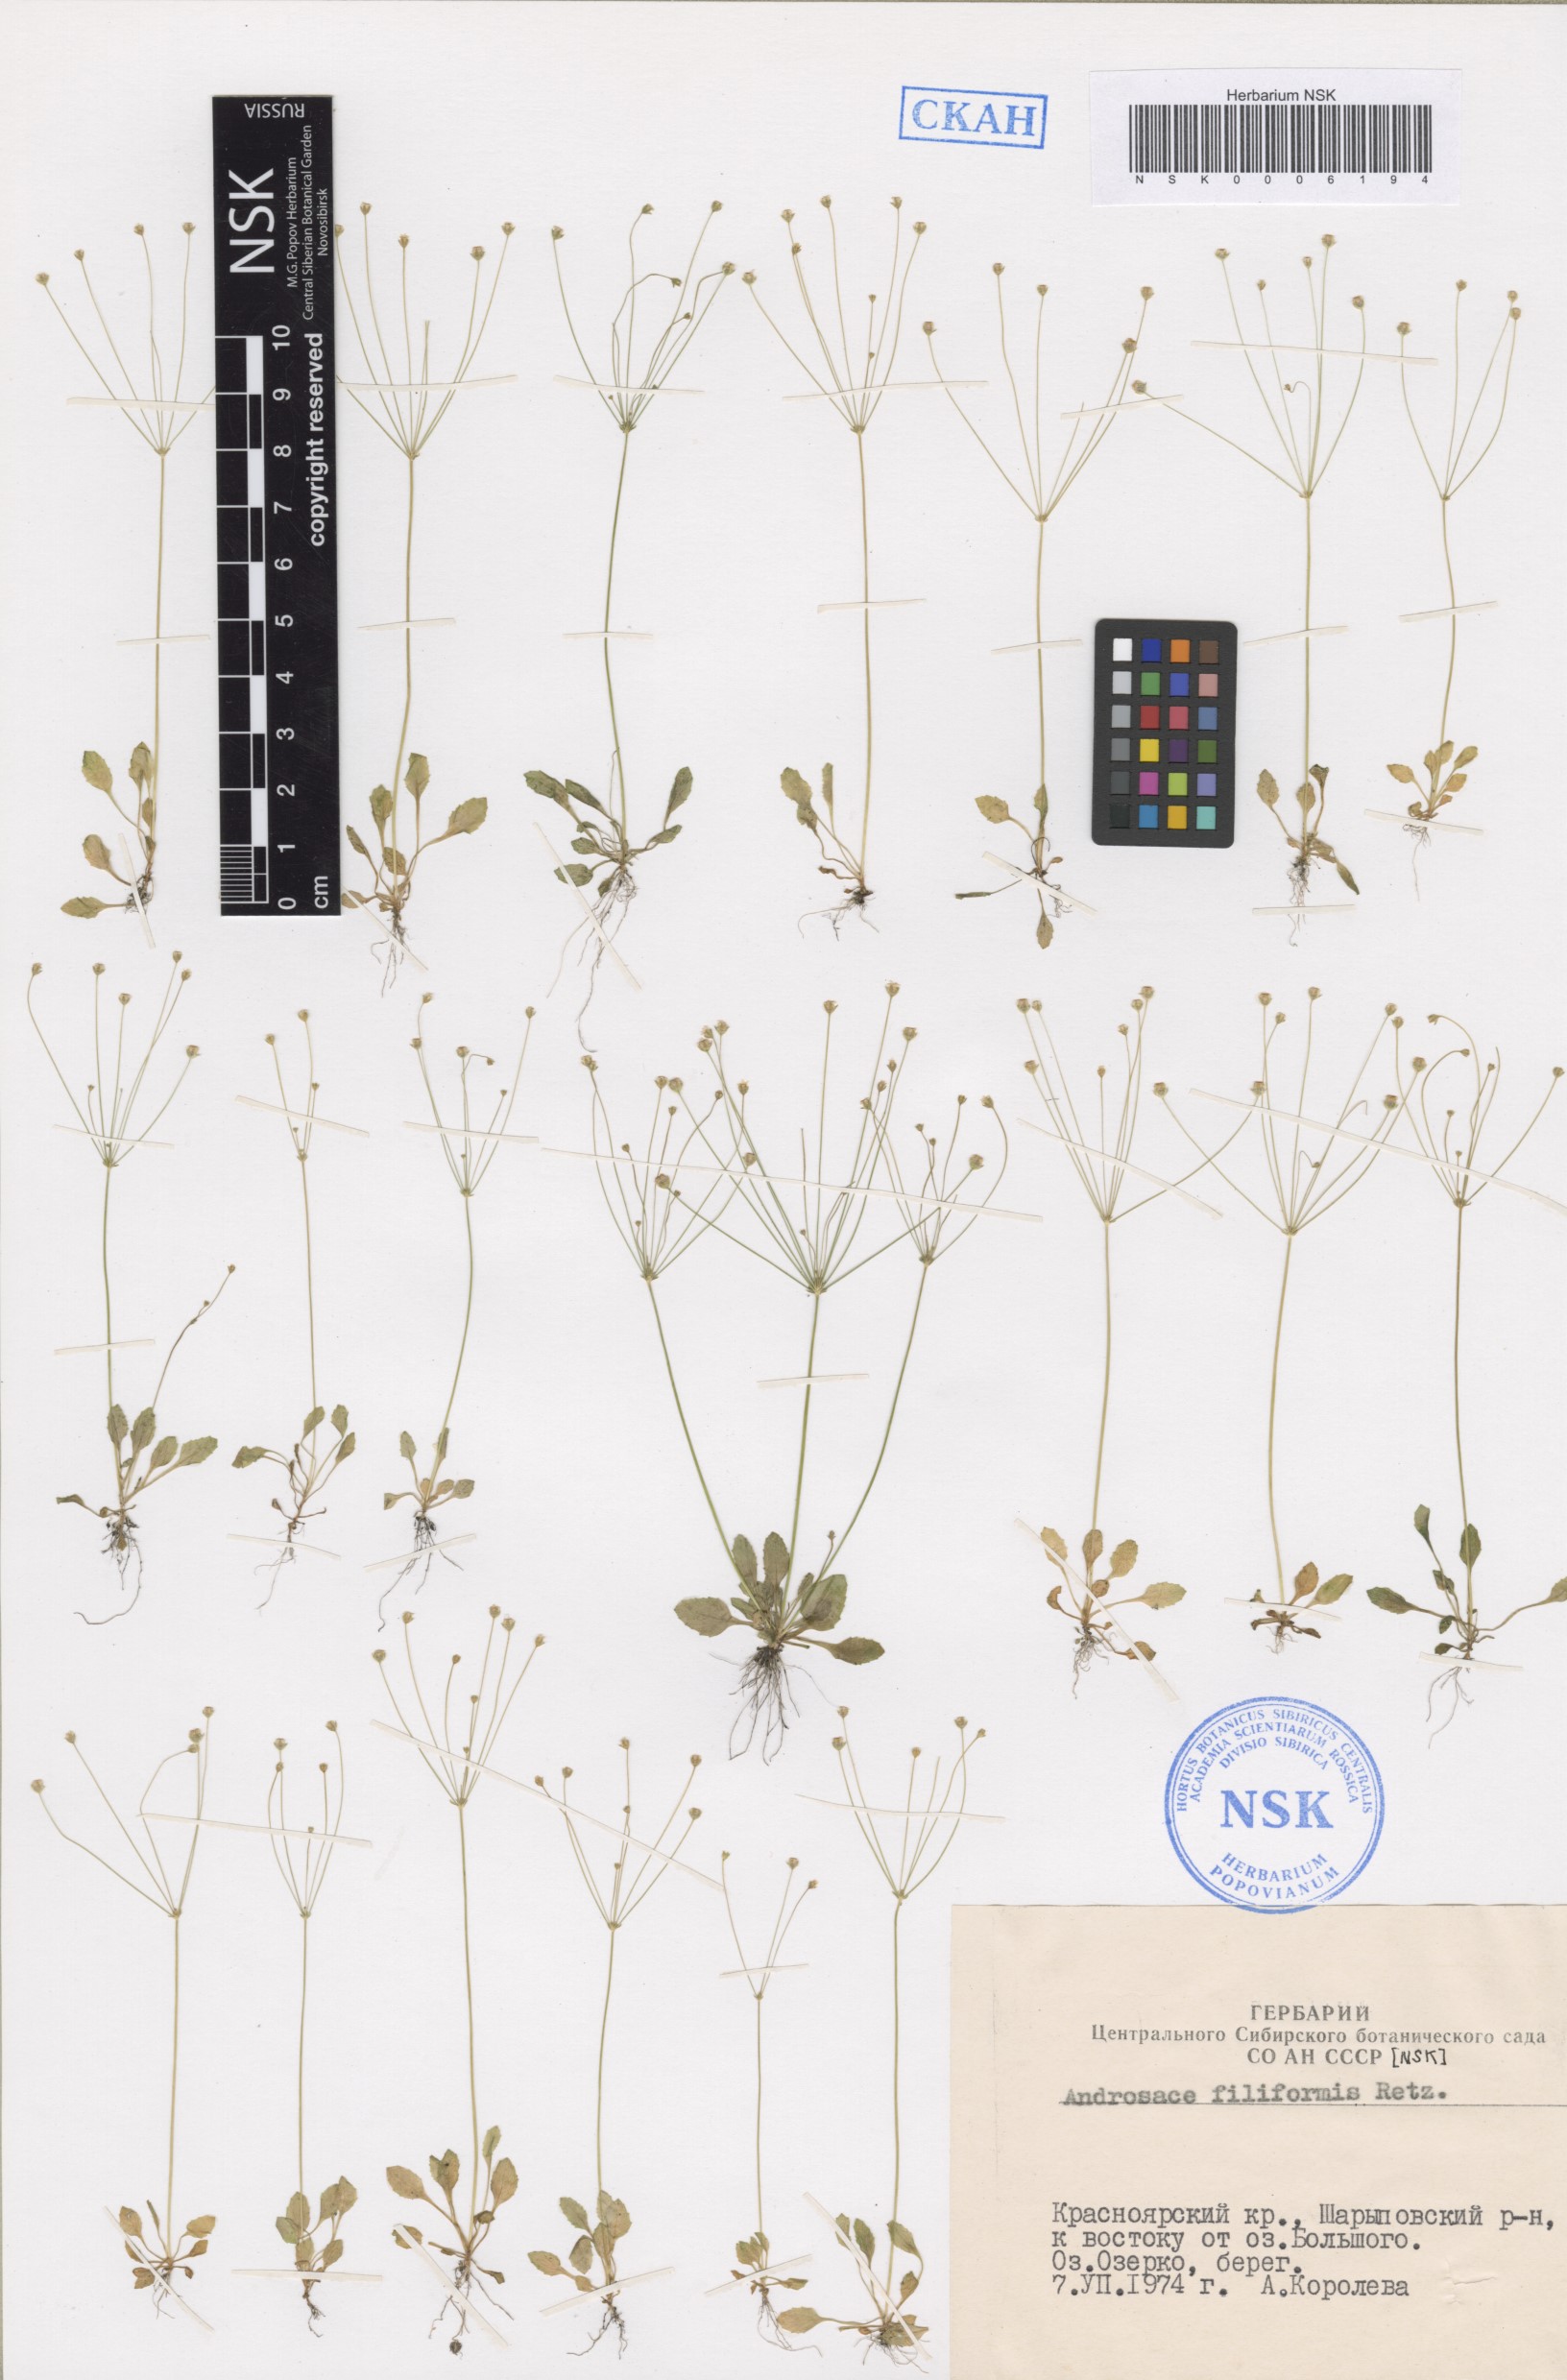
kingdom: Plantae
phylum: Tracheophyta
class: Magnoliopsida
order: Ericales
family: Primulaceae
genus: Androsace
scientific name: Androsace filiformis
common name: Filiform rock jasmine
